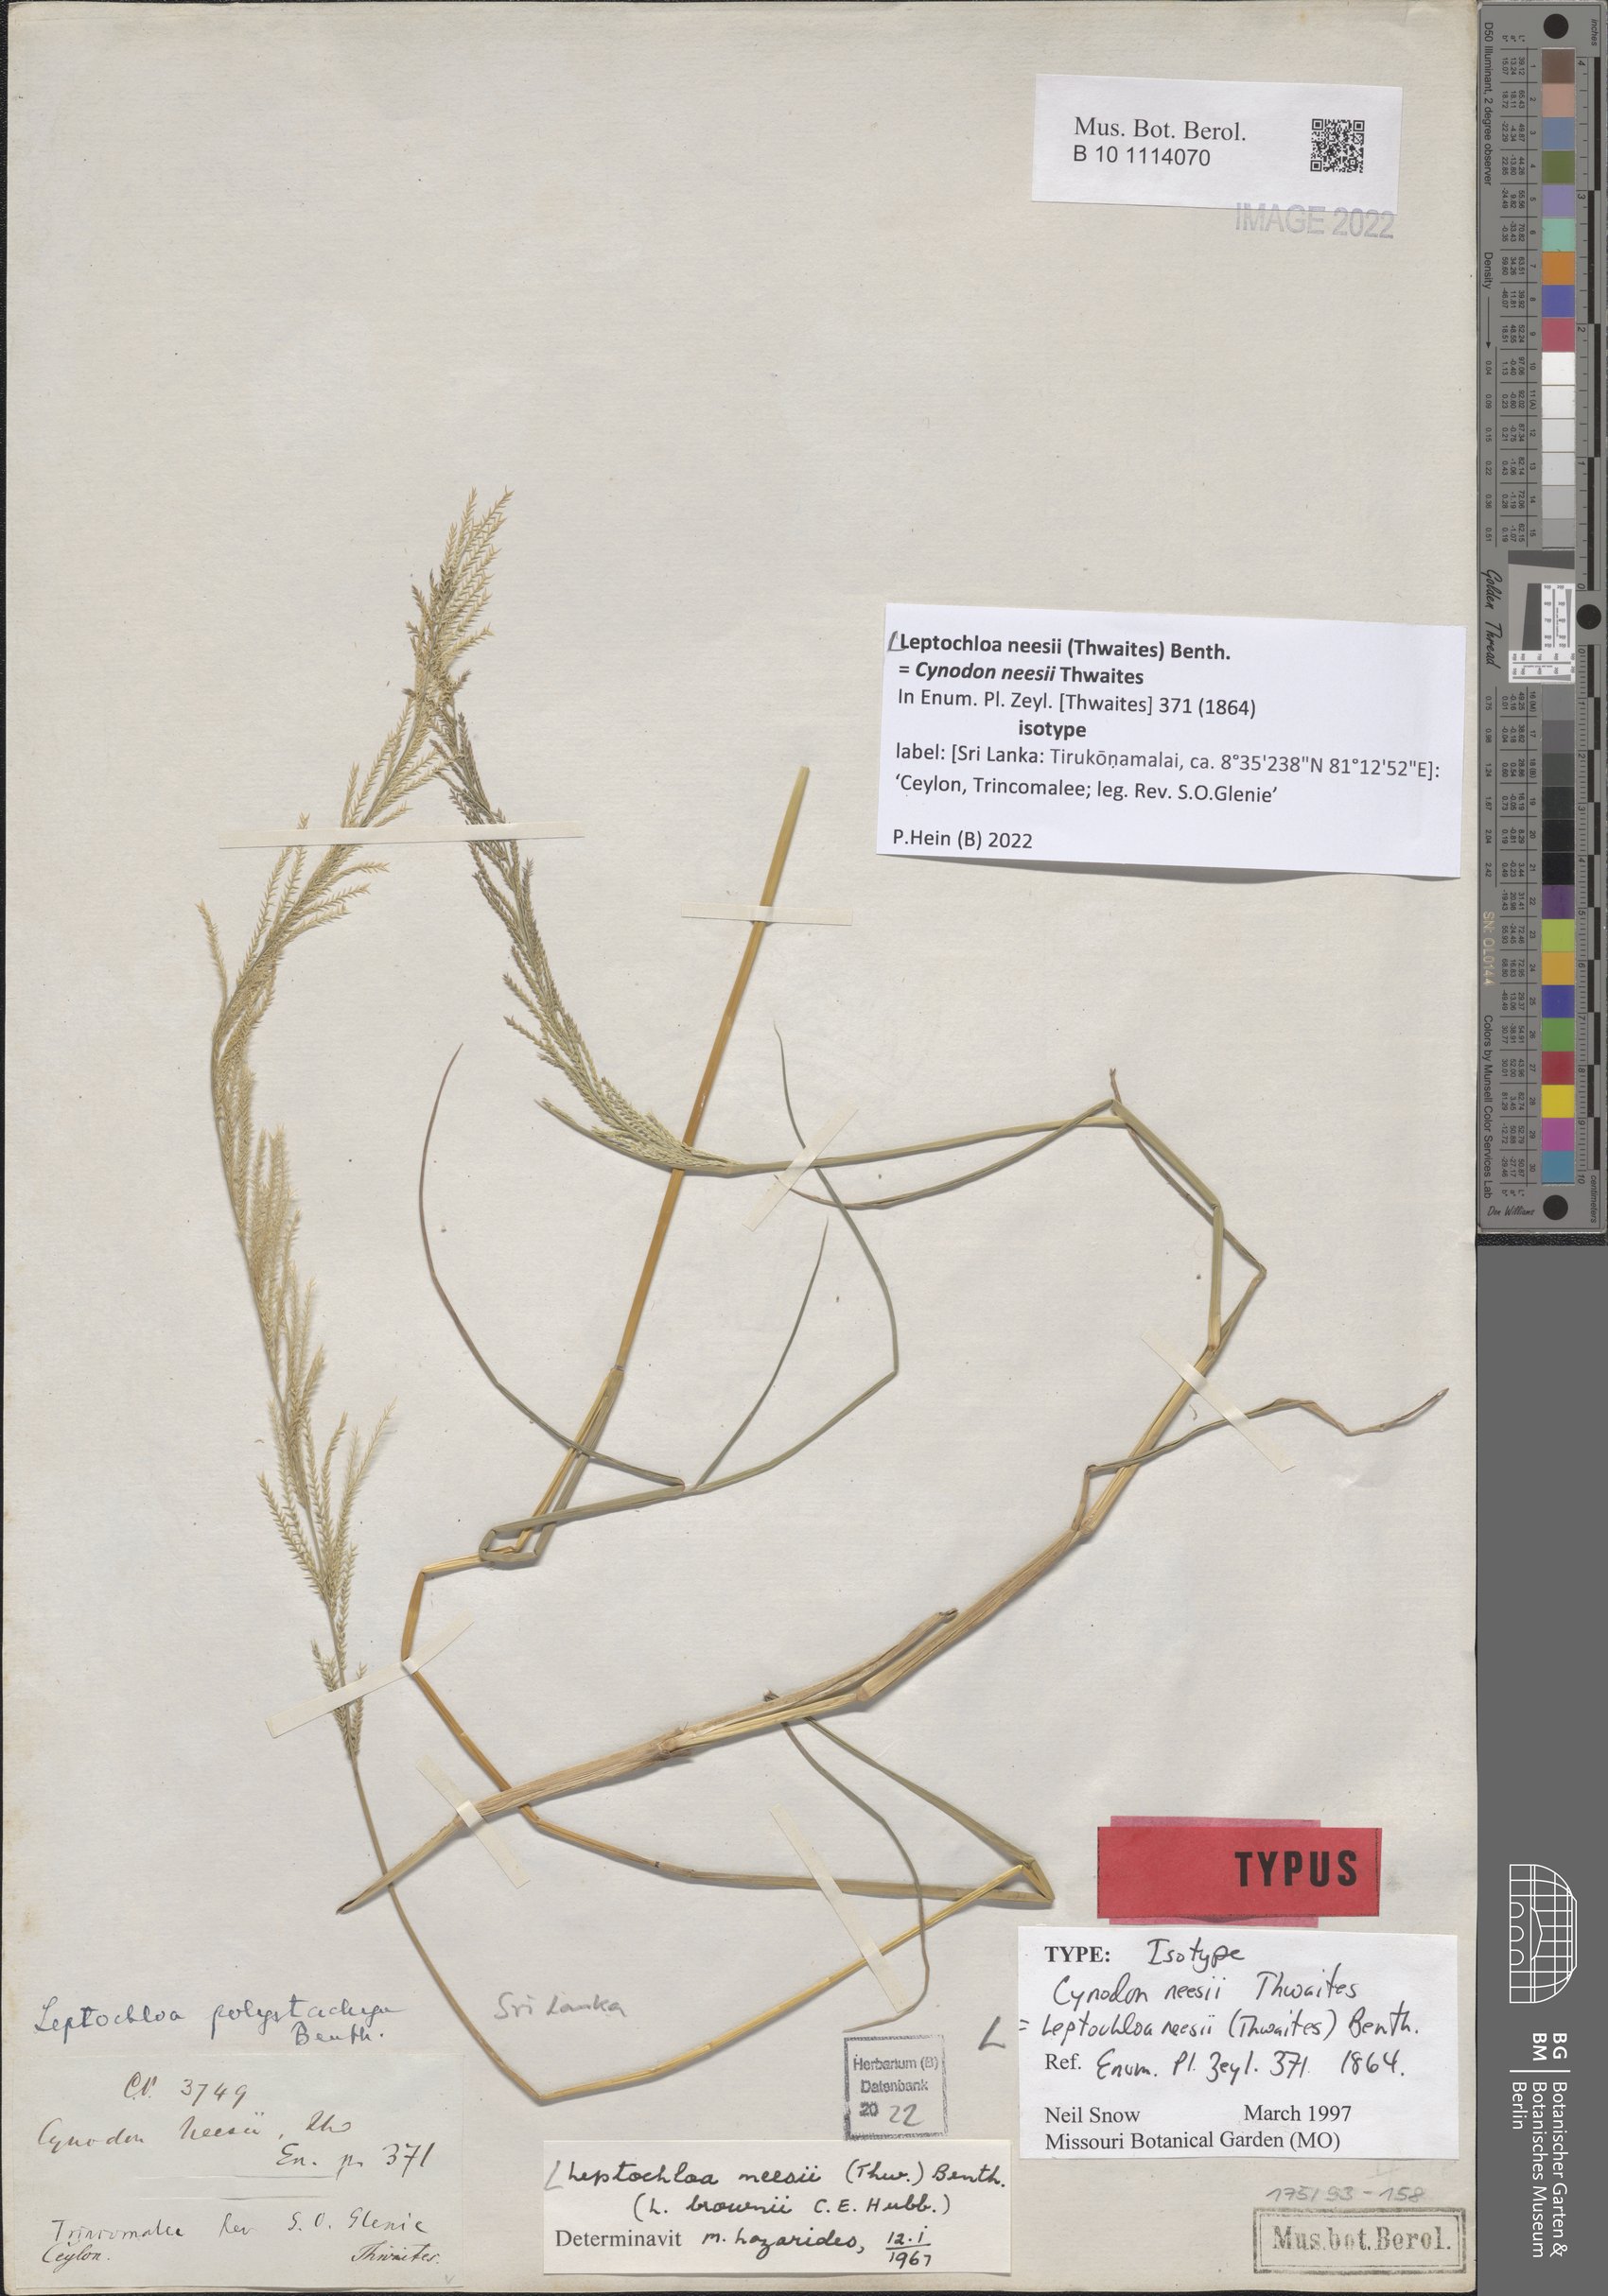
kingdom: Plantae
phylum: Tracheophyta
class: Liliopsida
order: Poales
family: Poaceae
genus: Dinebra
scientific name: Dinebra polystachyos
